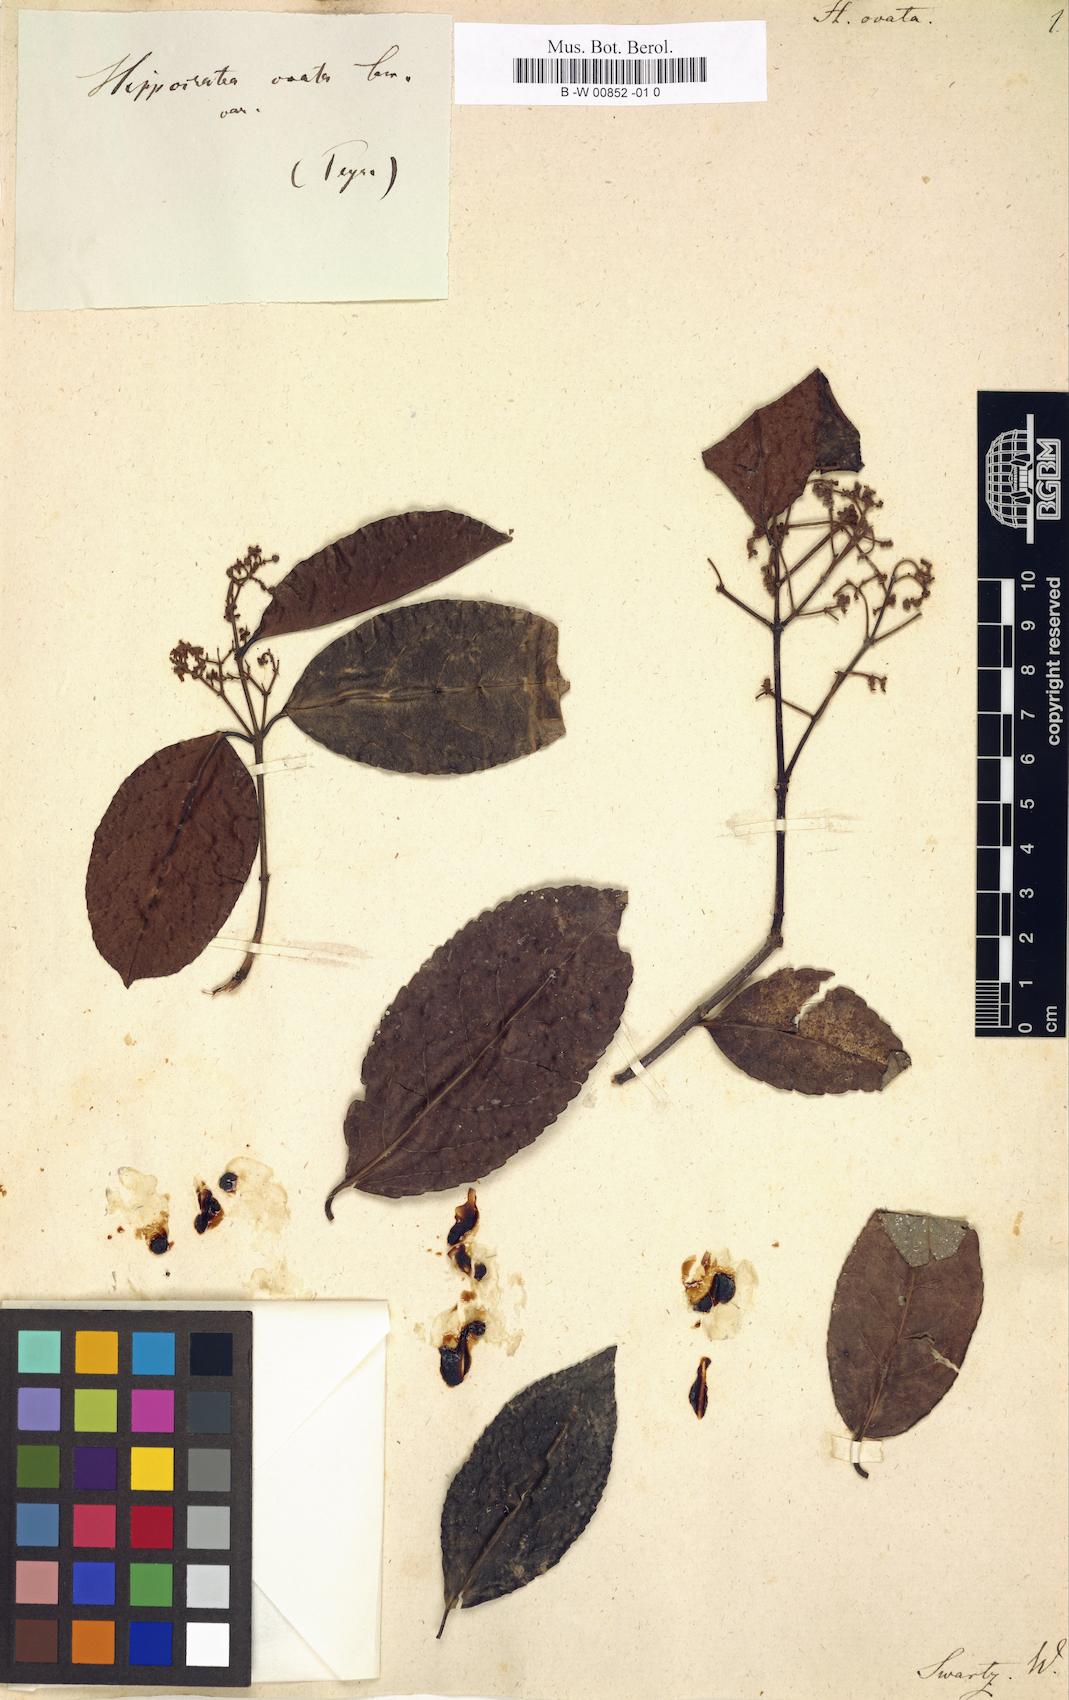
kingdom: Plantae
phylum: Tracheophyta
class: Magnoliopsida
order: Celastrales
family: Celastraceae
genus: Hippocratea
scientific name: Hippocratea volubilis
